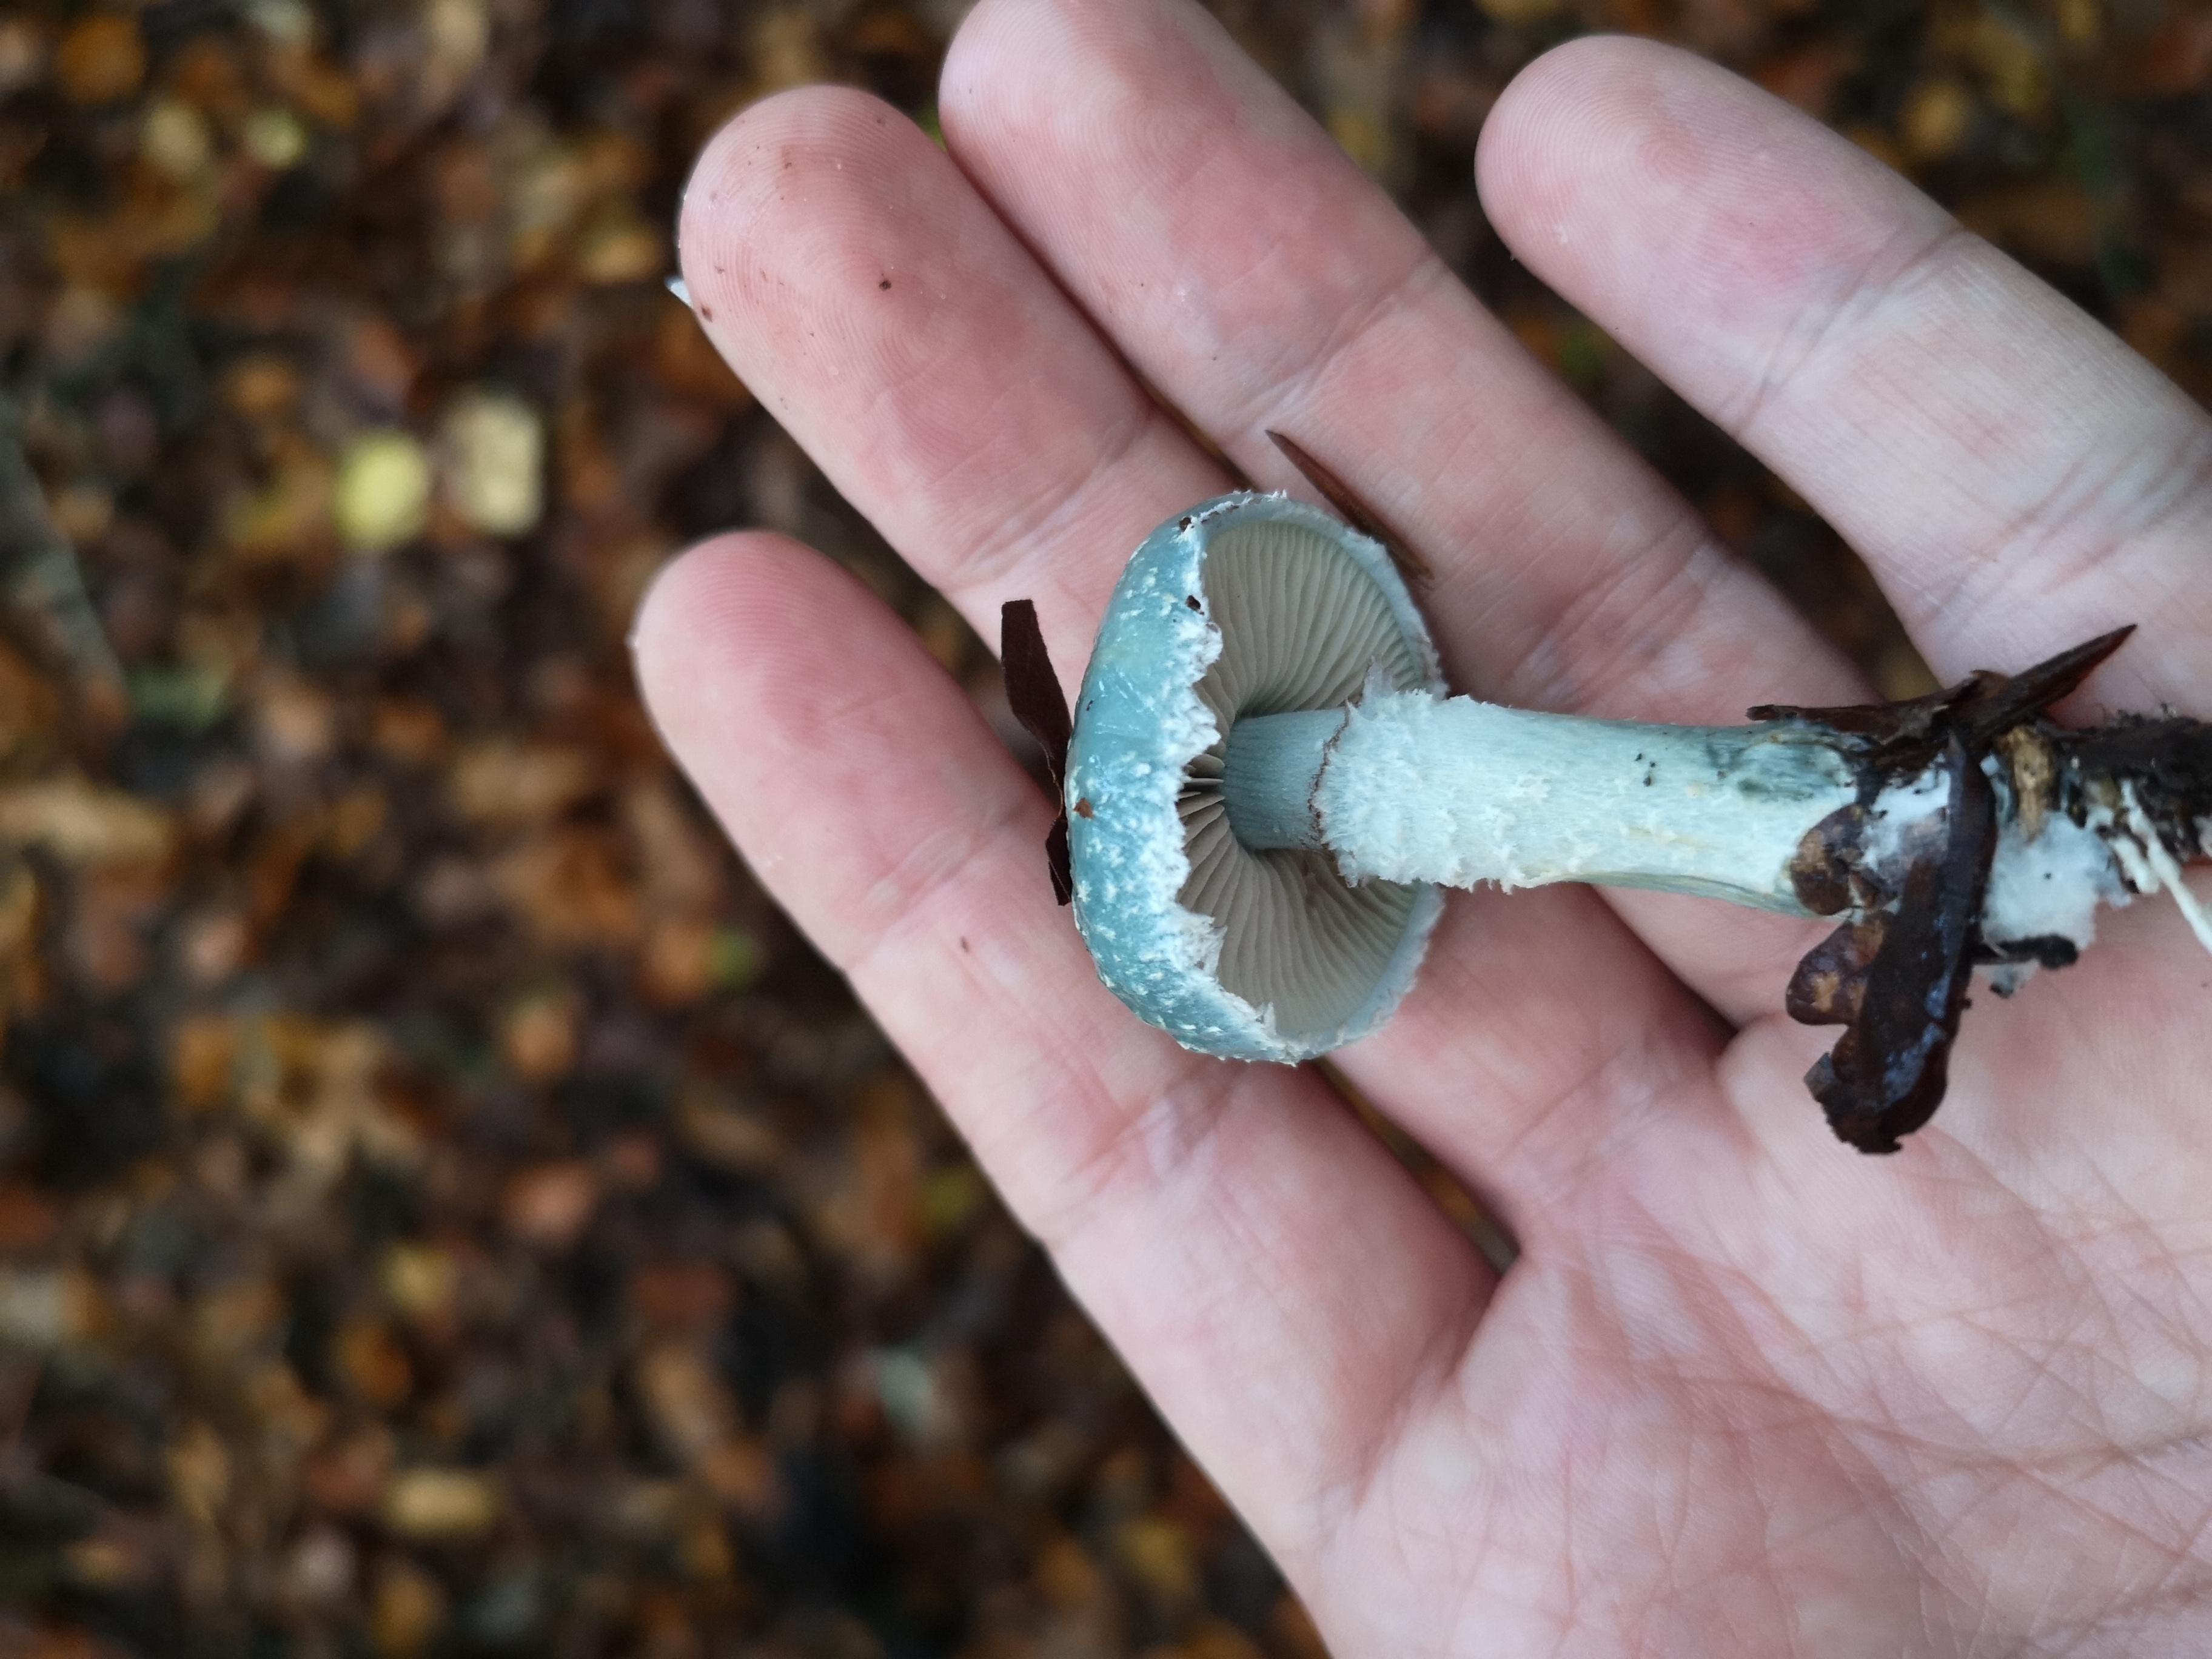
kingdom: Fungi
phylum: Basidiomycota
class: Agaricomycetes
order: Agaricales
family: Strophariaceae
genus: Stropharia
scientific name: Stropharia aeruginosa
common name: spanskgrøn bredblad
